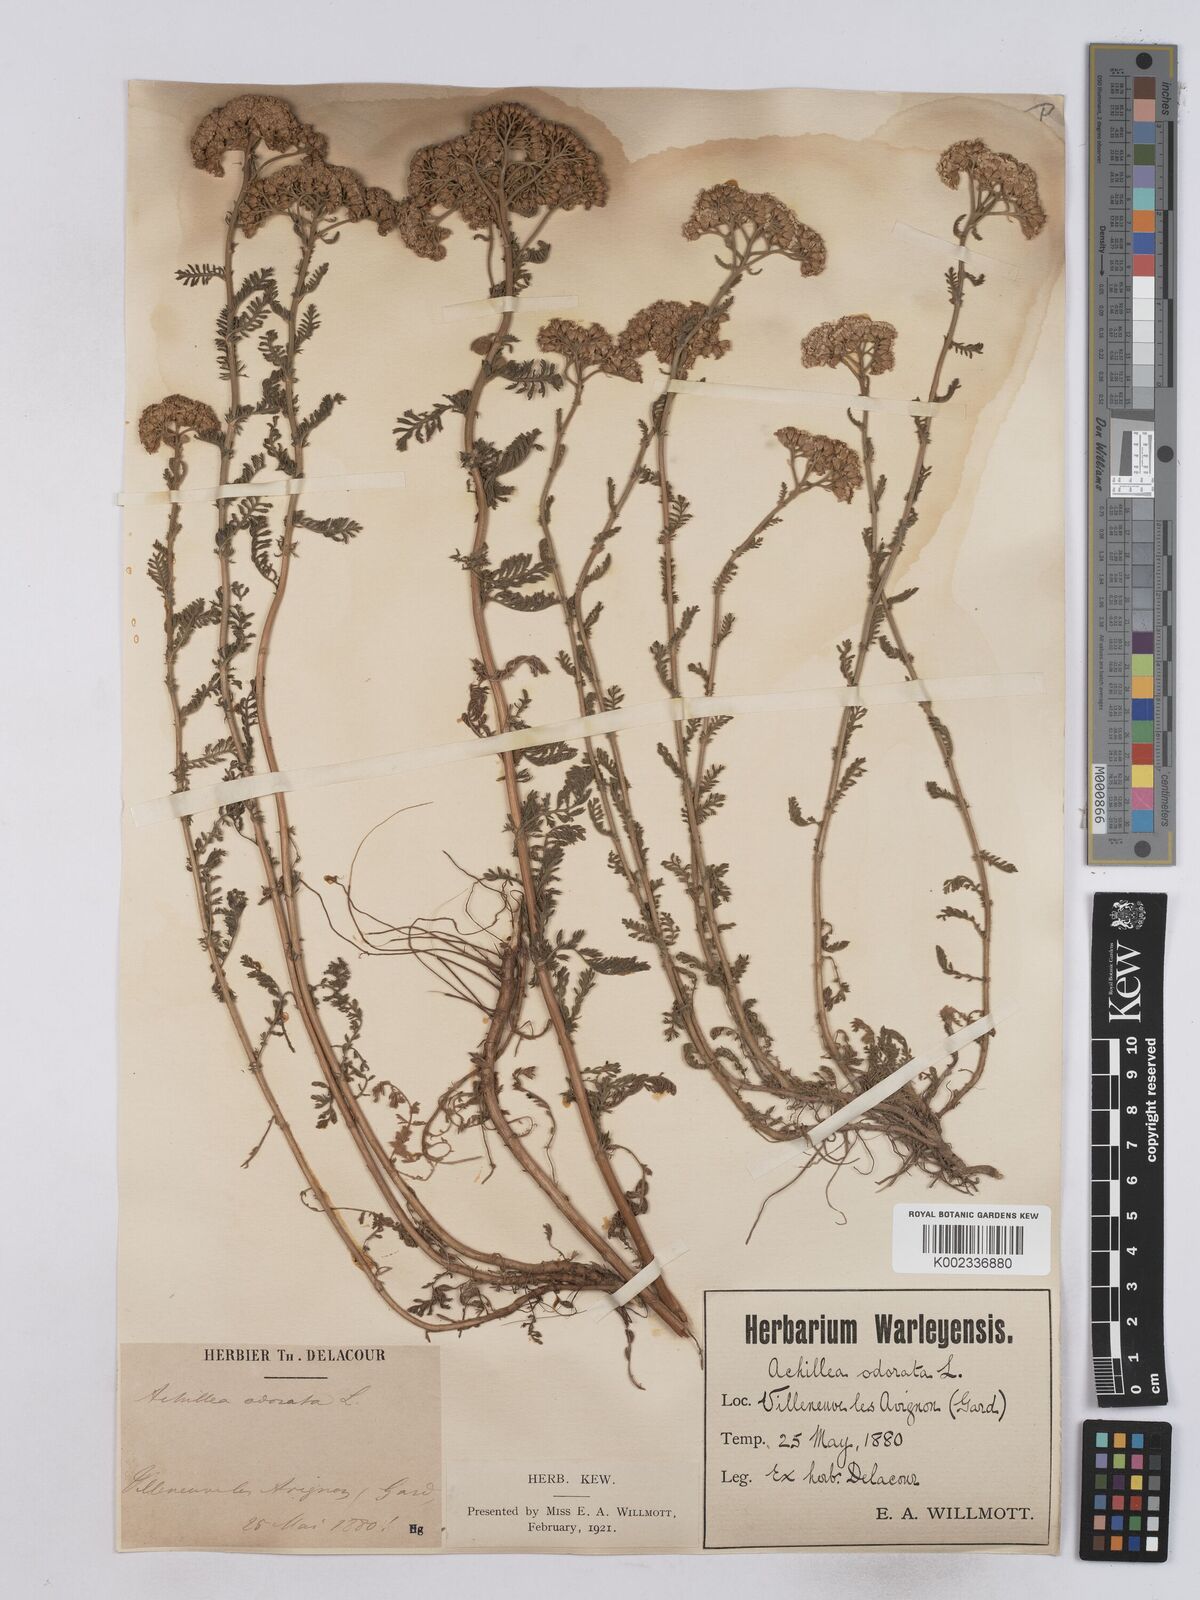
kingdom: Plantae
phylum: Tracheophyta
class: Magnoliopsida
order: Asterales
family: Asteraceae
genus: Achillea
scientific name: Achillea odorata
